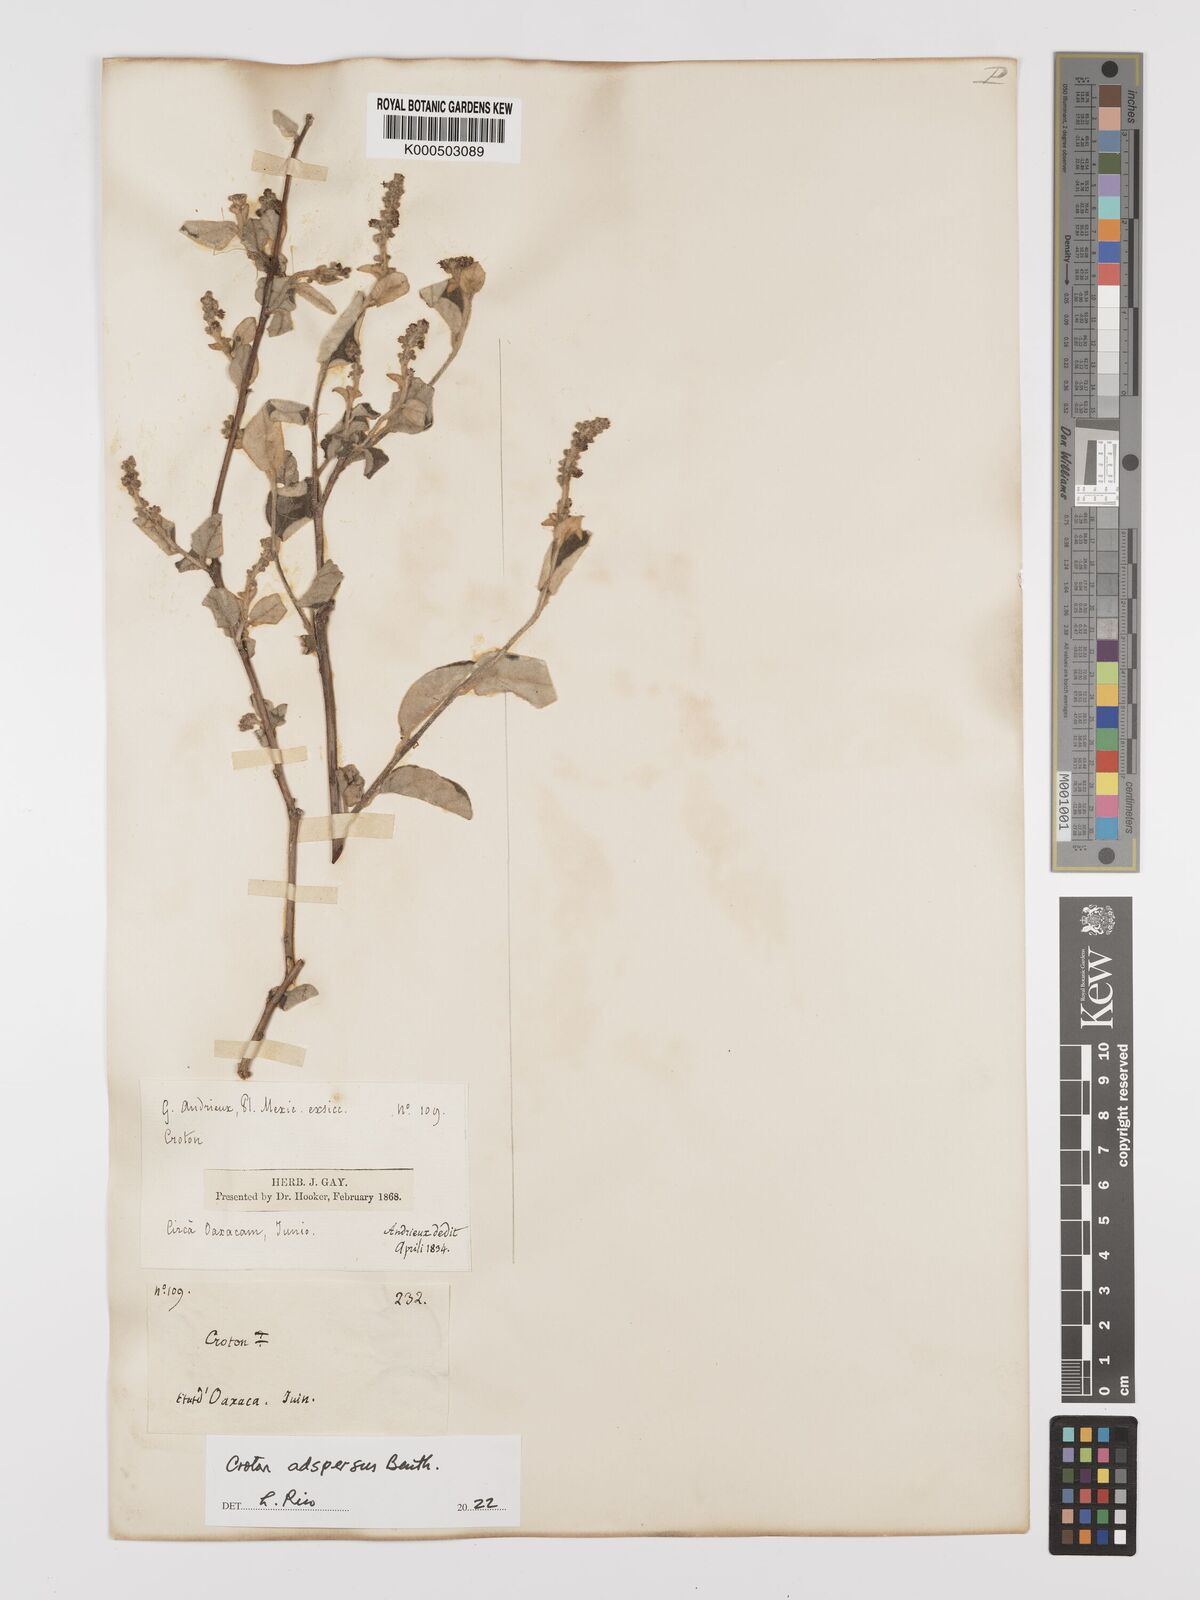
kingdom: Plantae
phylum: Tracheophyta
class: Magnoliopsida
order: Malpighiales
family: Euphorbiaceae
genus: Croton
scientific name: Croton adspersus
